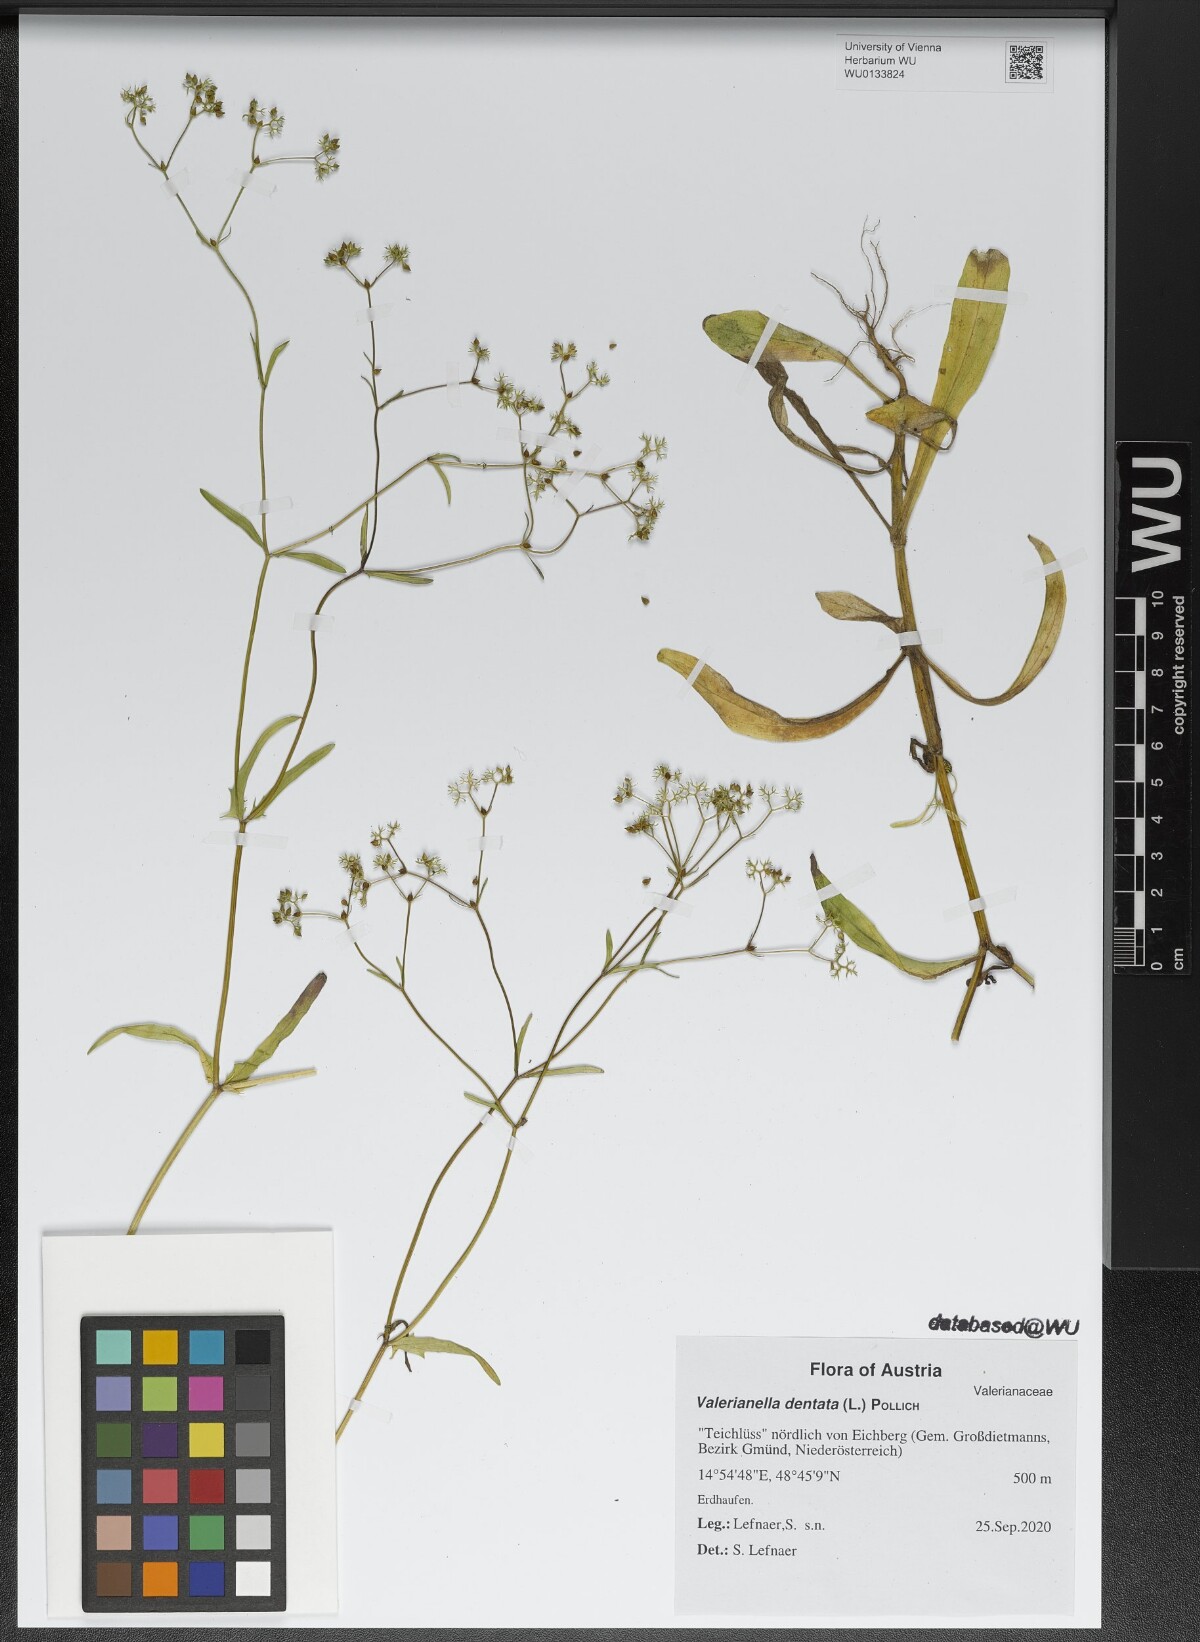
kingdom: Plantae
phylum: Tracheophyta
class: Magnoliopsida
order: Dipsacales
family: Caprifoliaceae
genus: Valerianella
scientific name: Valerianella dentata
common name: Narrow-fruited cornsalad
